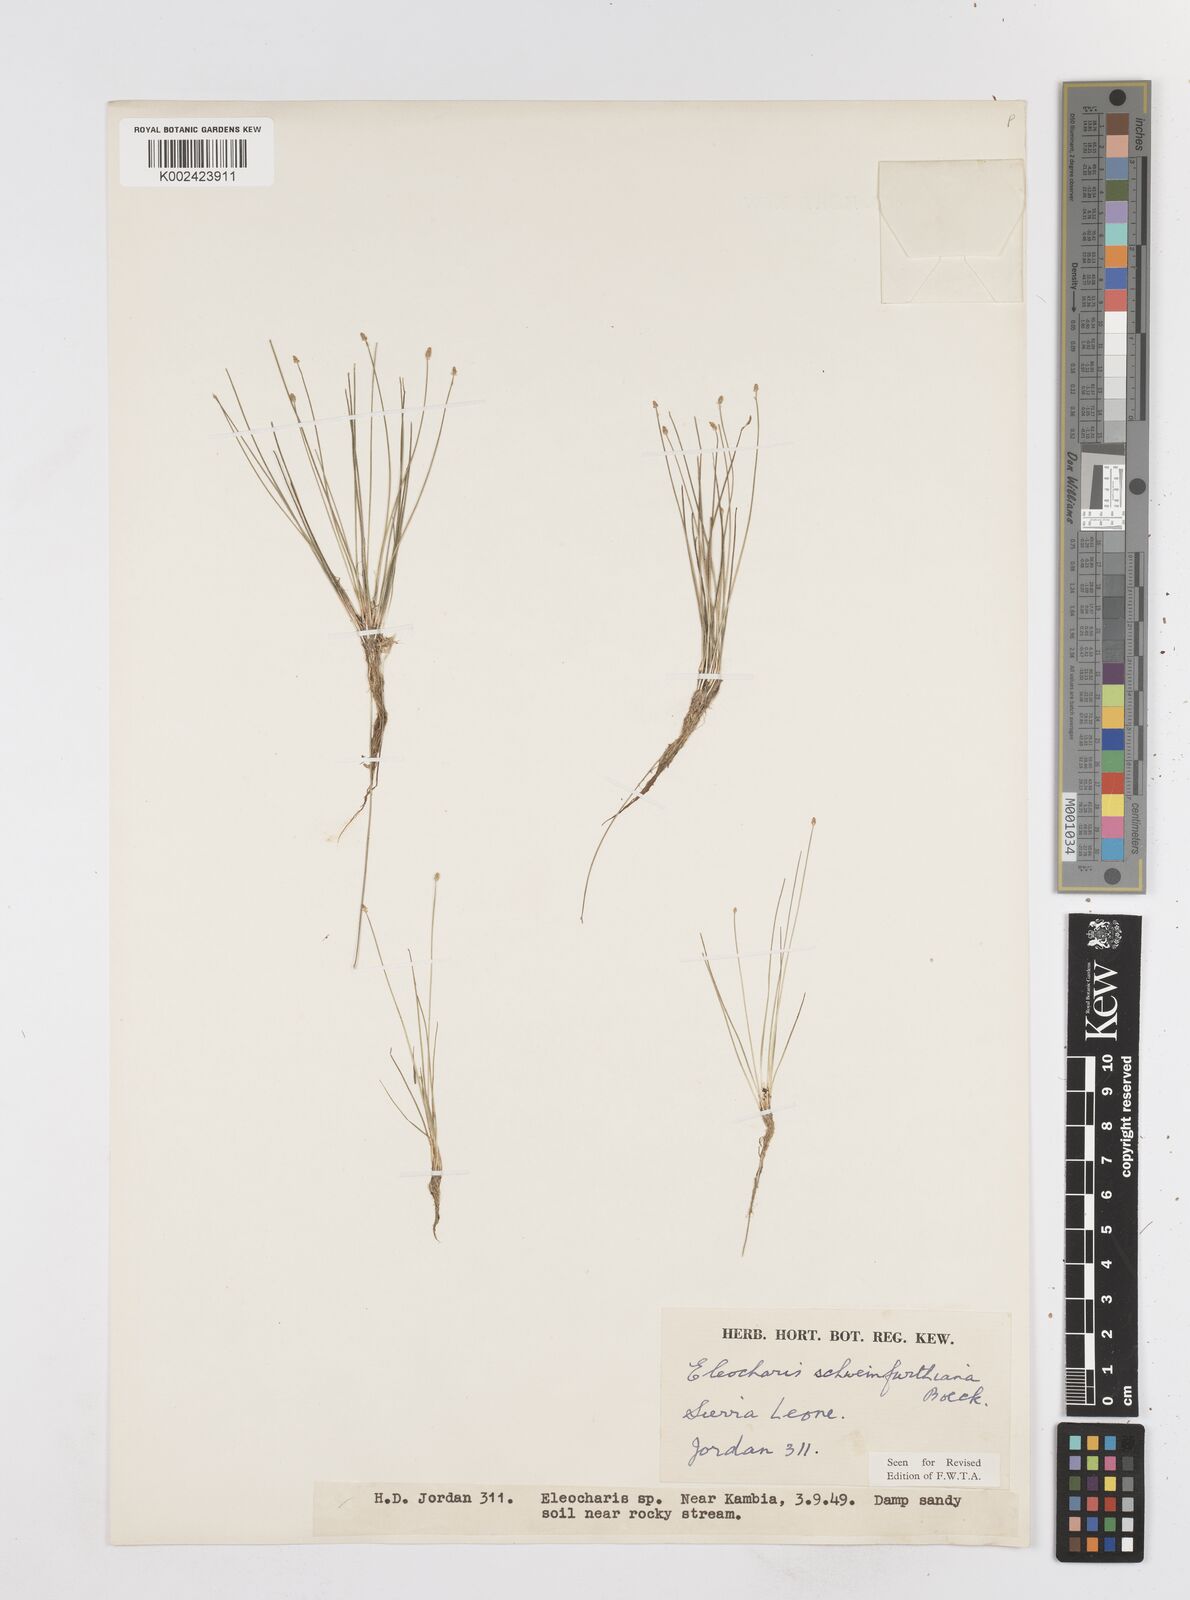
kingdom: Plantae
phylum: Tracheophyta
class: Liliopsida
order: Poales
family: Cyperaceae
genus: Eleocharis
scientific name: Eleocharis setifolia
